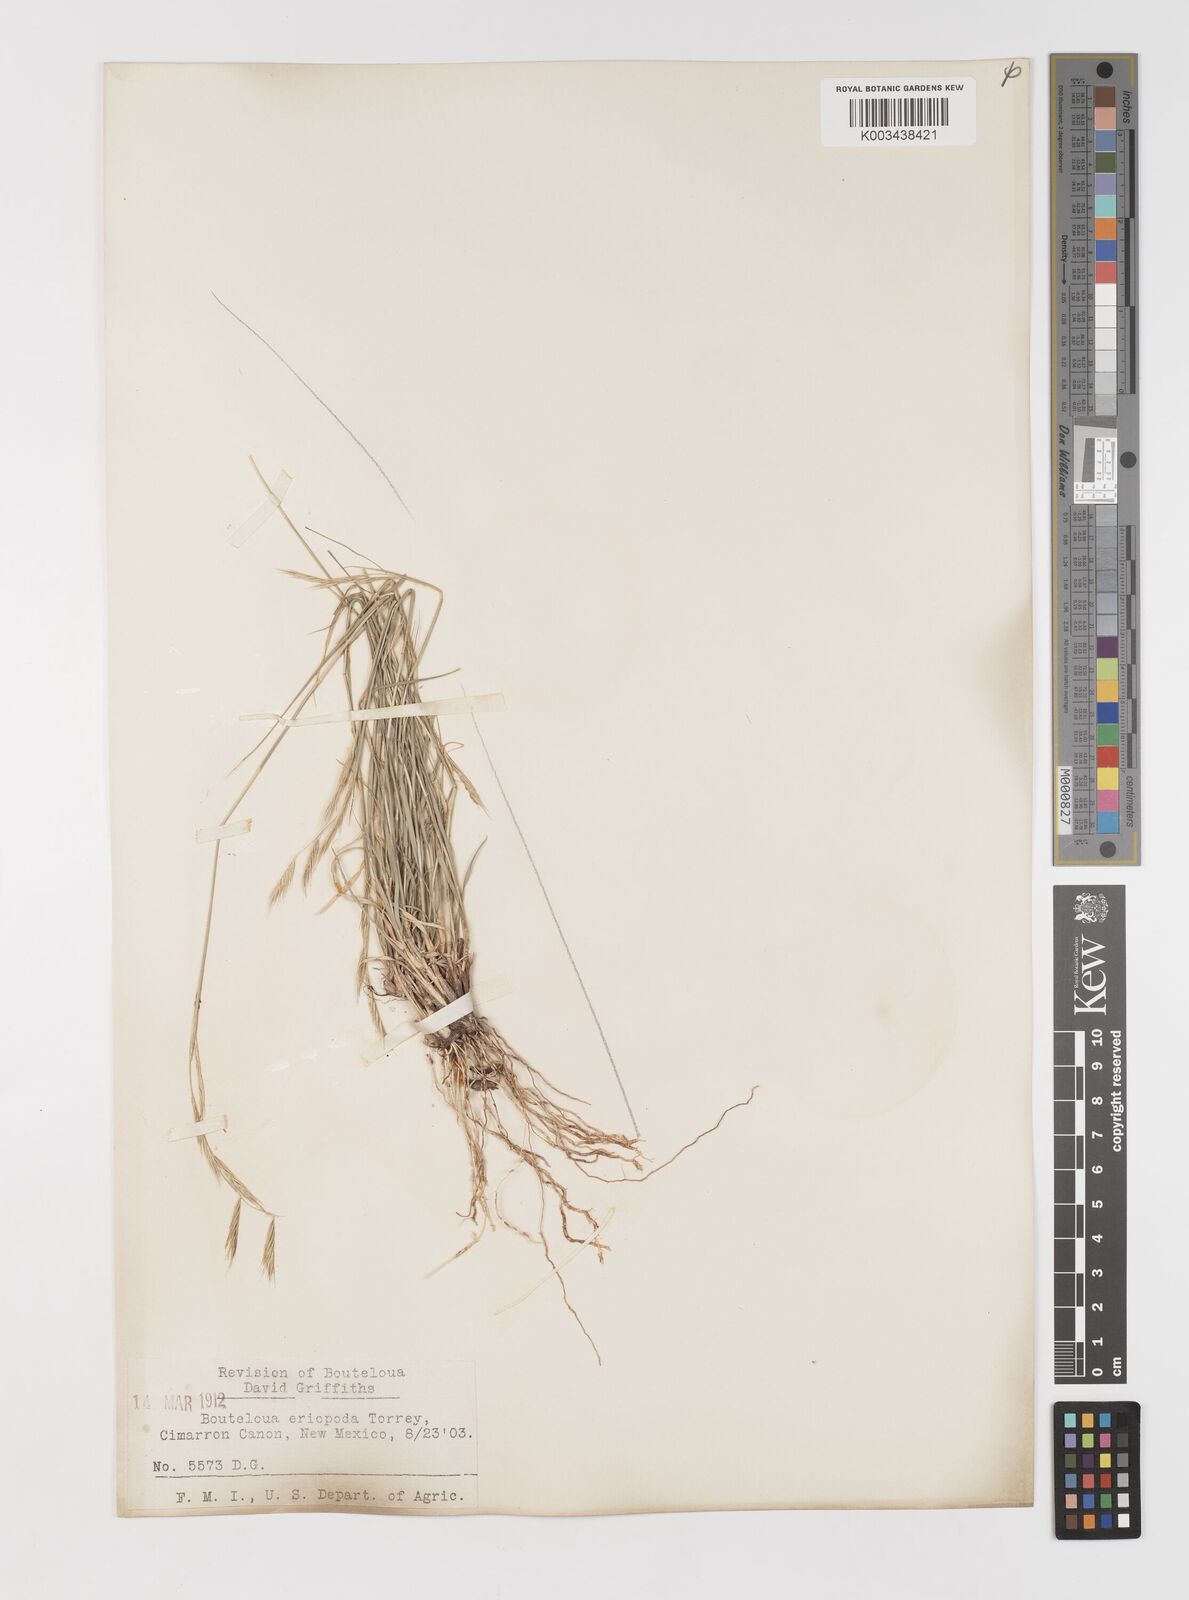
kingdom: Plantae
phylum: Tracheophyta
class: Liliopsida
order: Poales
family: Poaceae
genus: Bouteloua
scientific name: Bouteloua eriopoda
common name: Woolly foot grama
